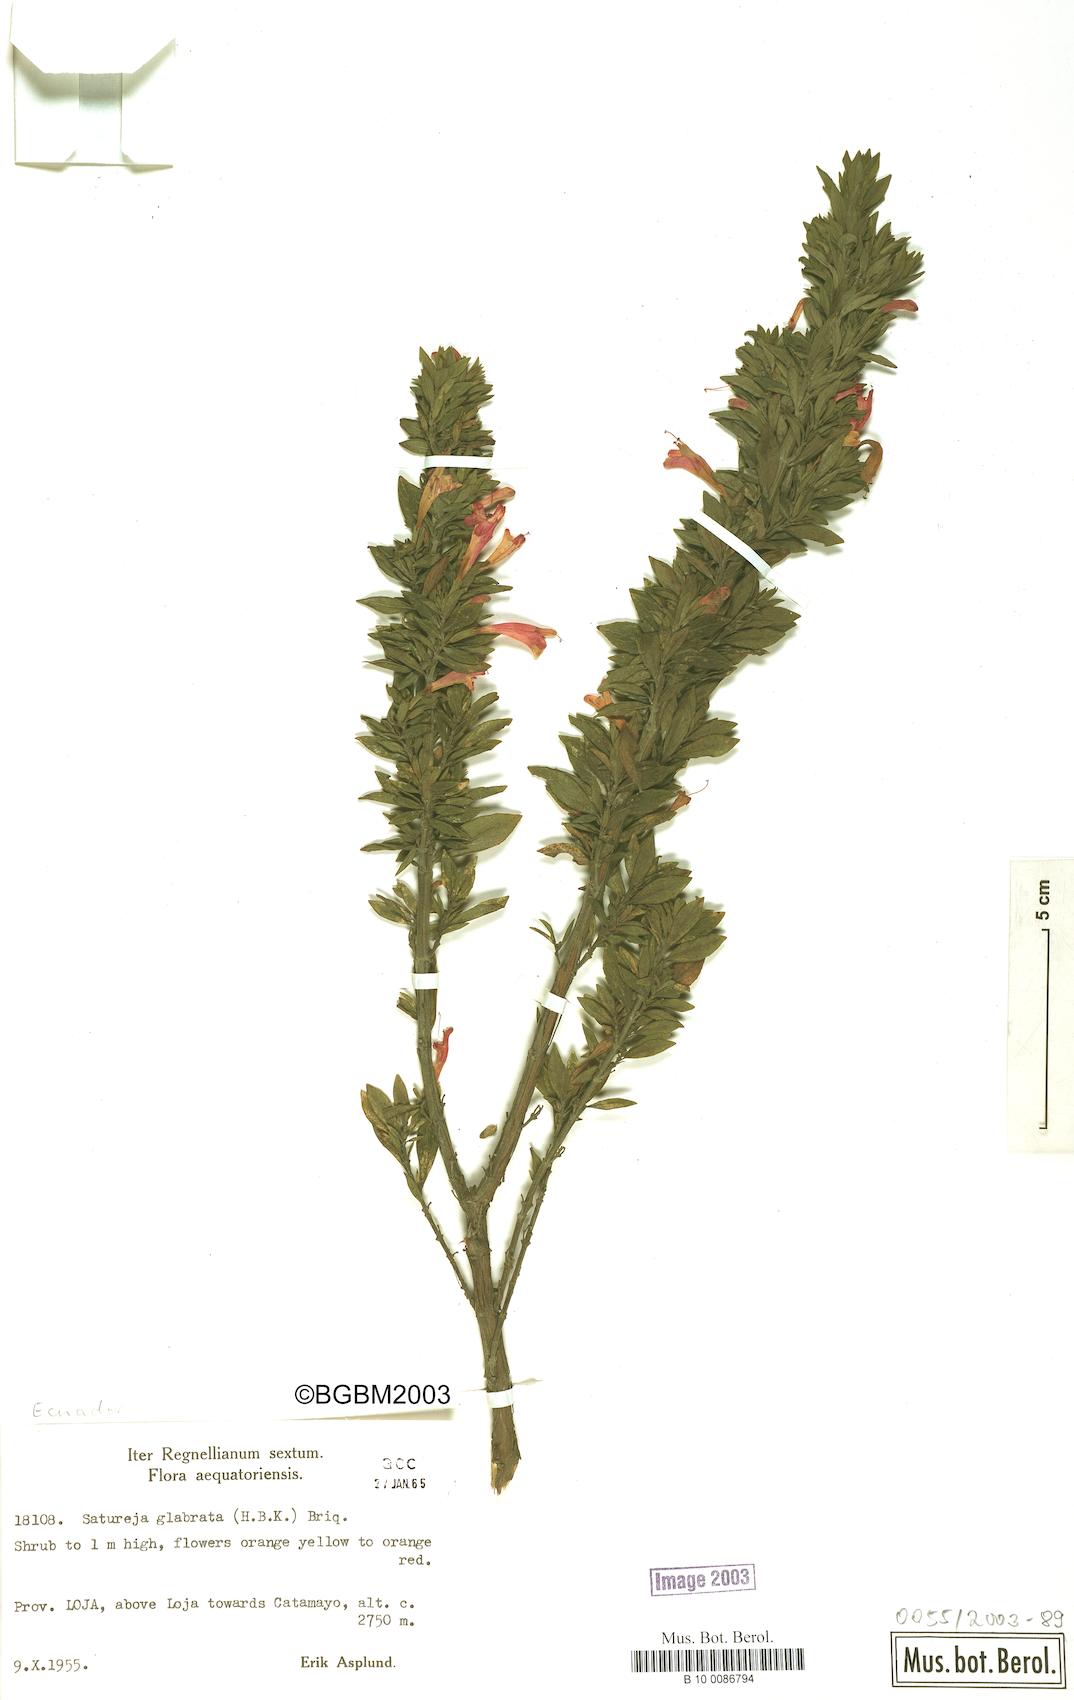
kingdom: Plantae
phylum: Tracheophyta
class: Magnoliopsida
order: Lamiales
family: Lamiaceae
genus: Clinopodium
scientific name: Clinopodium taxifolium
